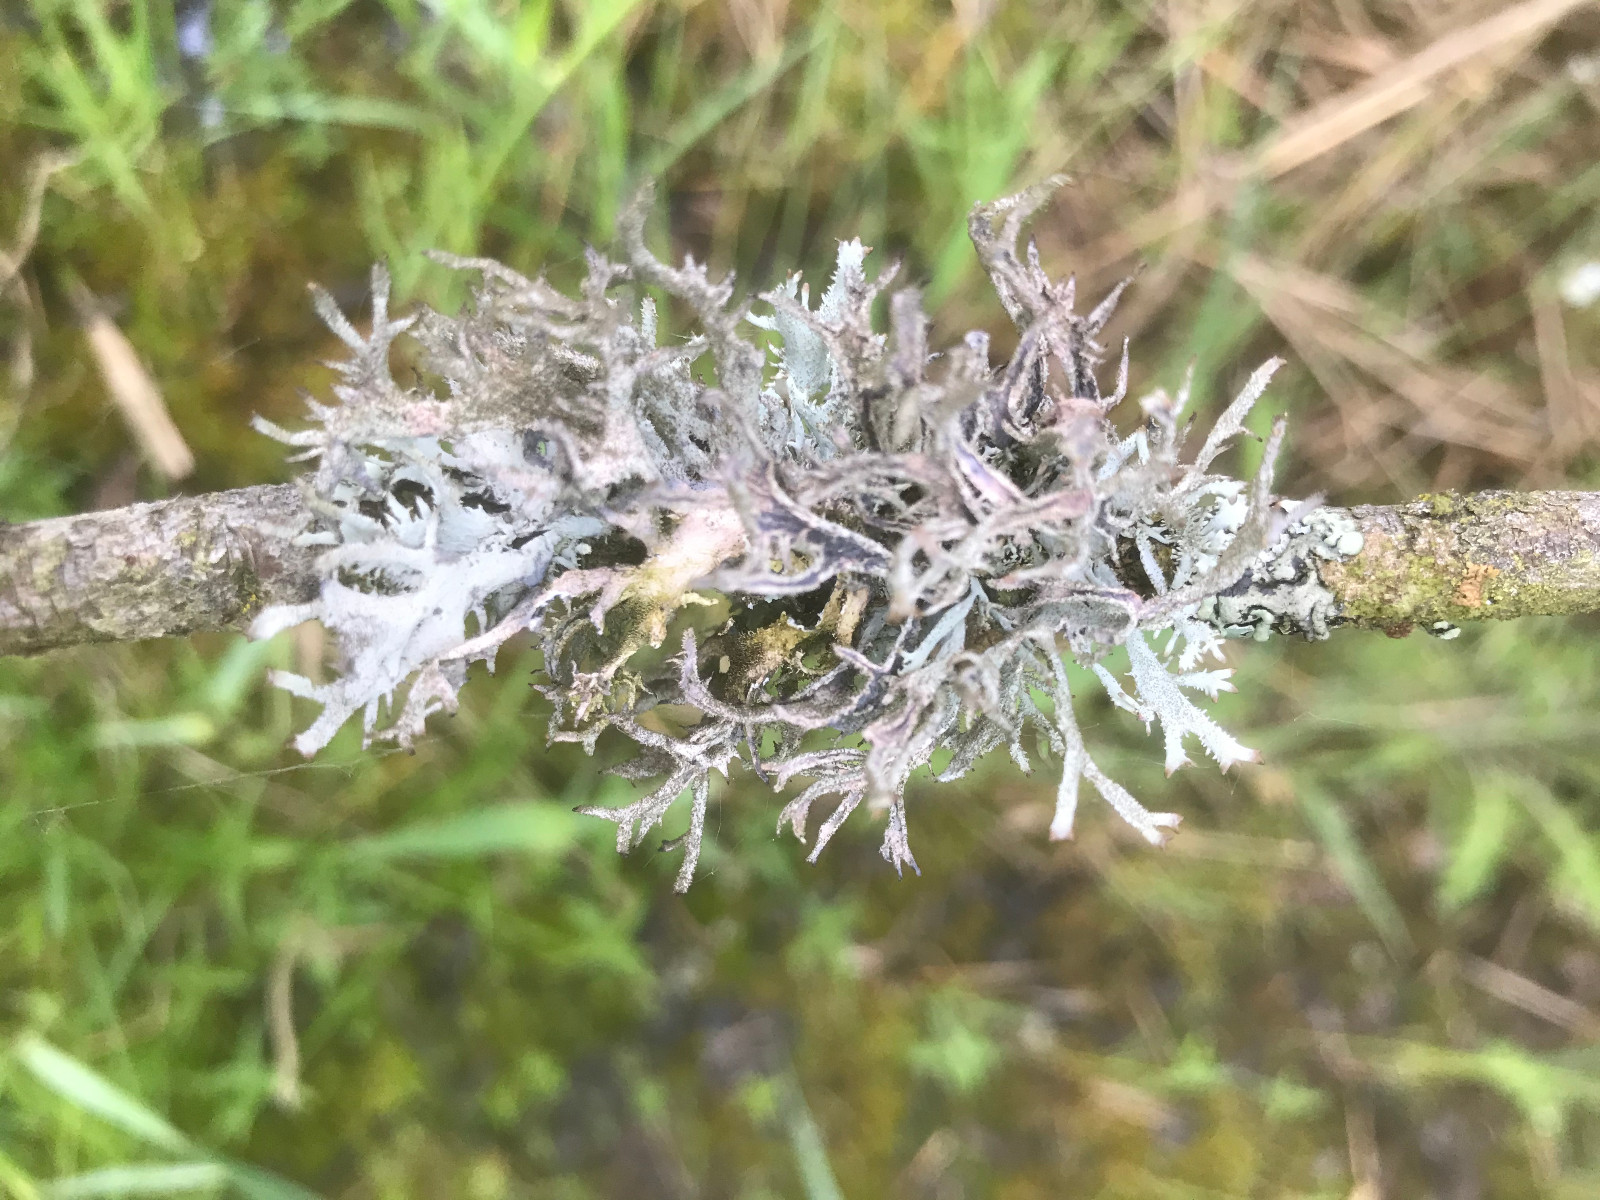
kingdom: Fungi
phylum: Ascomycota
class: Lecanoromycetes
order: Lecanorales
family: Parmeliaceae
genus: Pseudevernia
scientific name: Pseudevernia furfuracea
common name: grå fyrrelav
